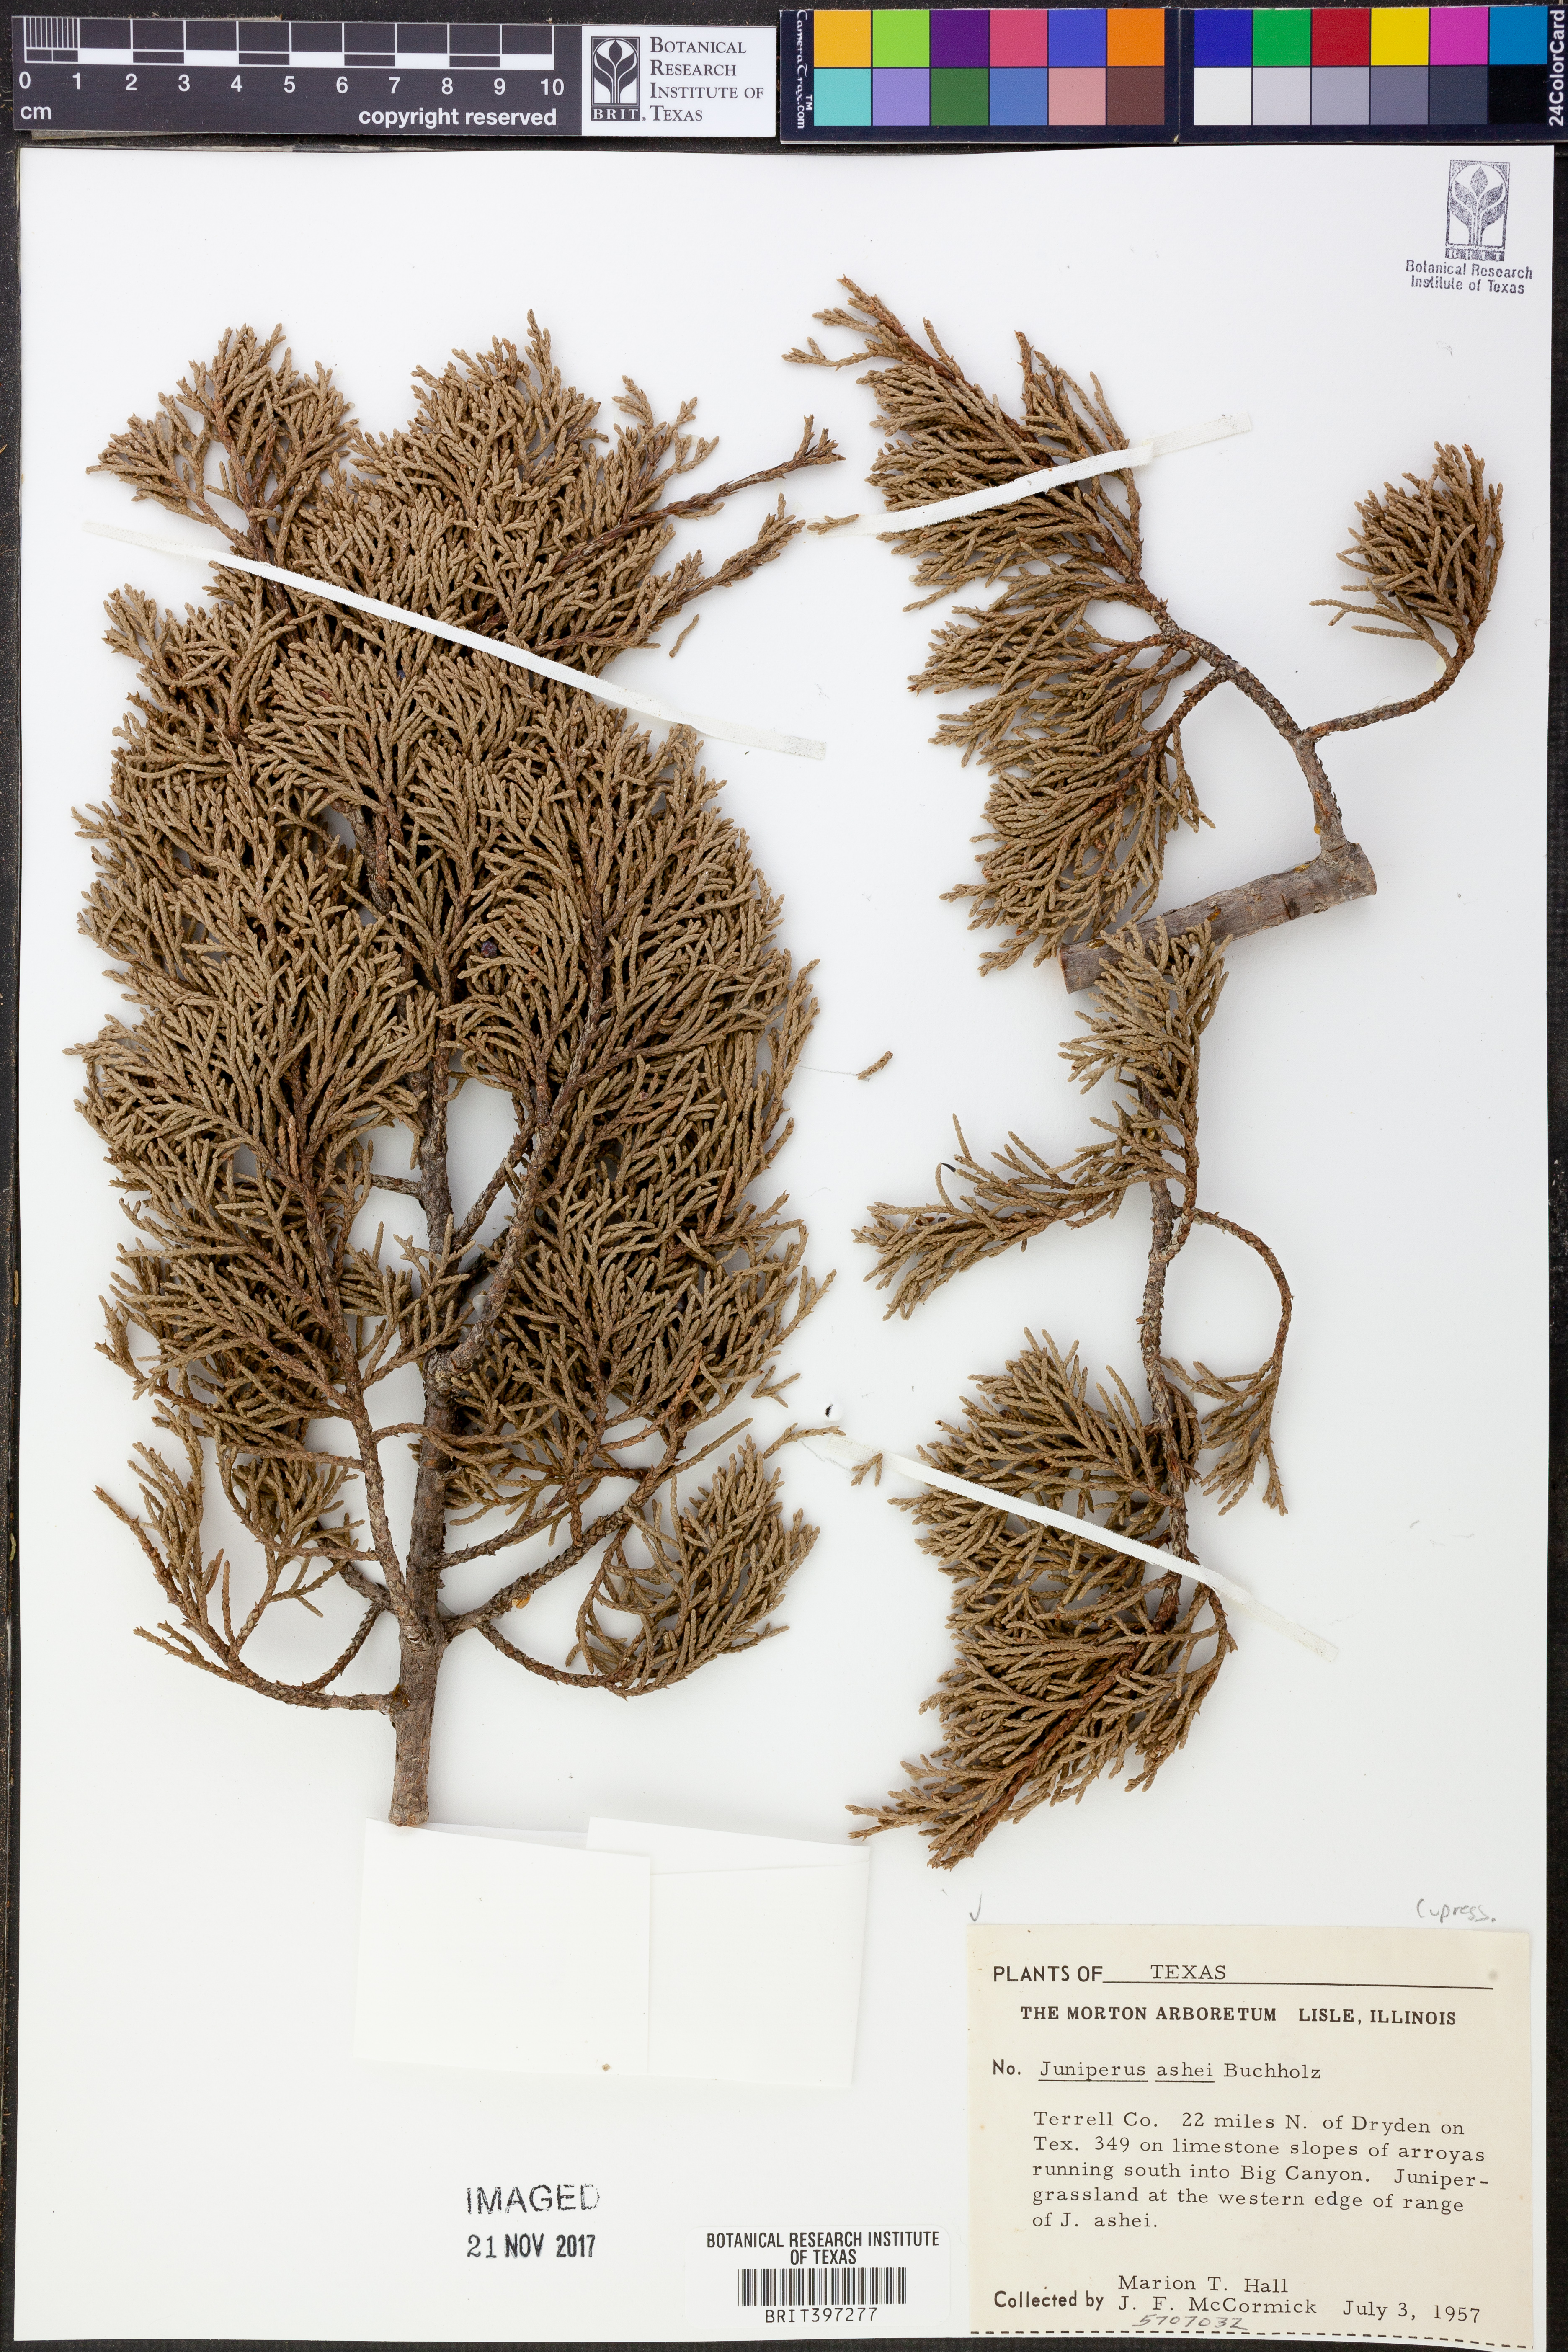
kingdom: Plantae
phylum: Tracheophyta
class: Pinopsida
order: Pinales
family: Cupressaceae
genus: Juniperus
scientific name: Juniperus ashei
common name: Mexican juniper
